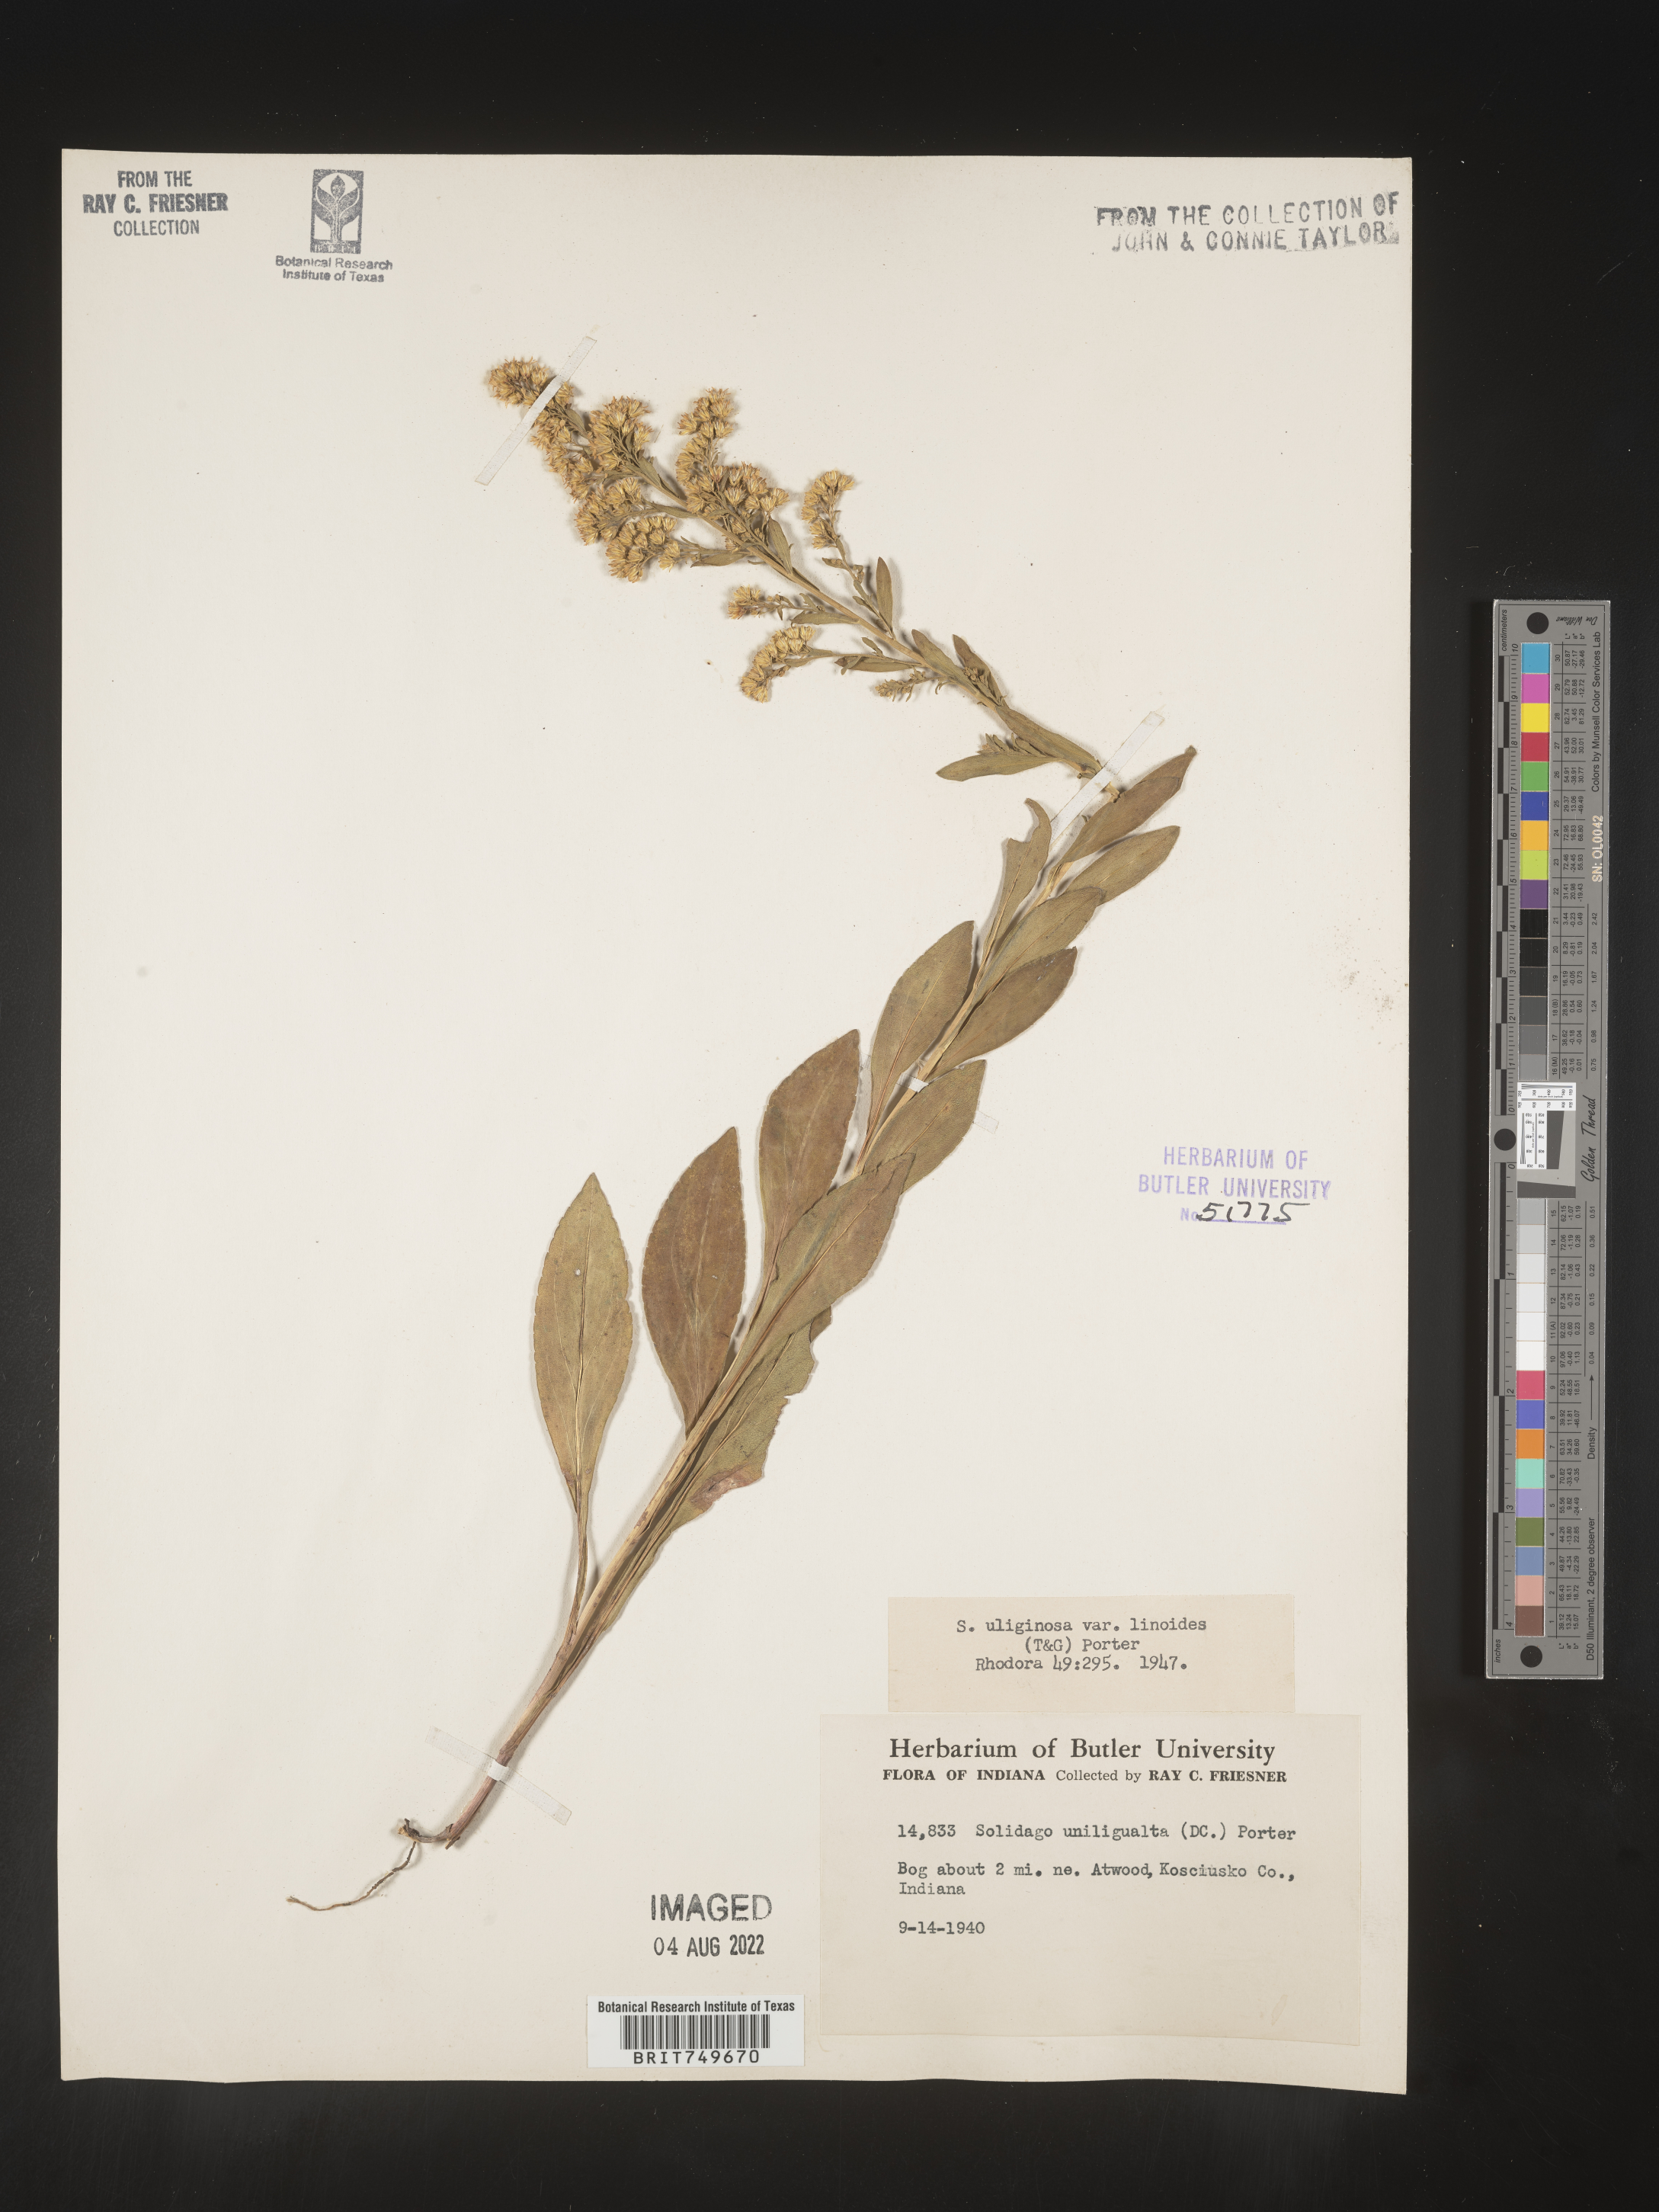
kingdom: Plantae
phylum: Tracheophyta
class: Magnoliopsida
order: Asterales
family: Asteraceae
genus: Solidago
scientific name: Solidago uliginosa
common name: Bog goldenrod
